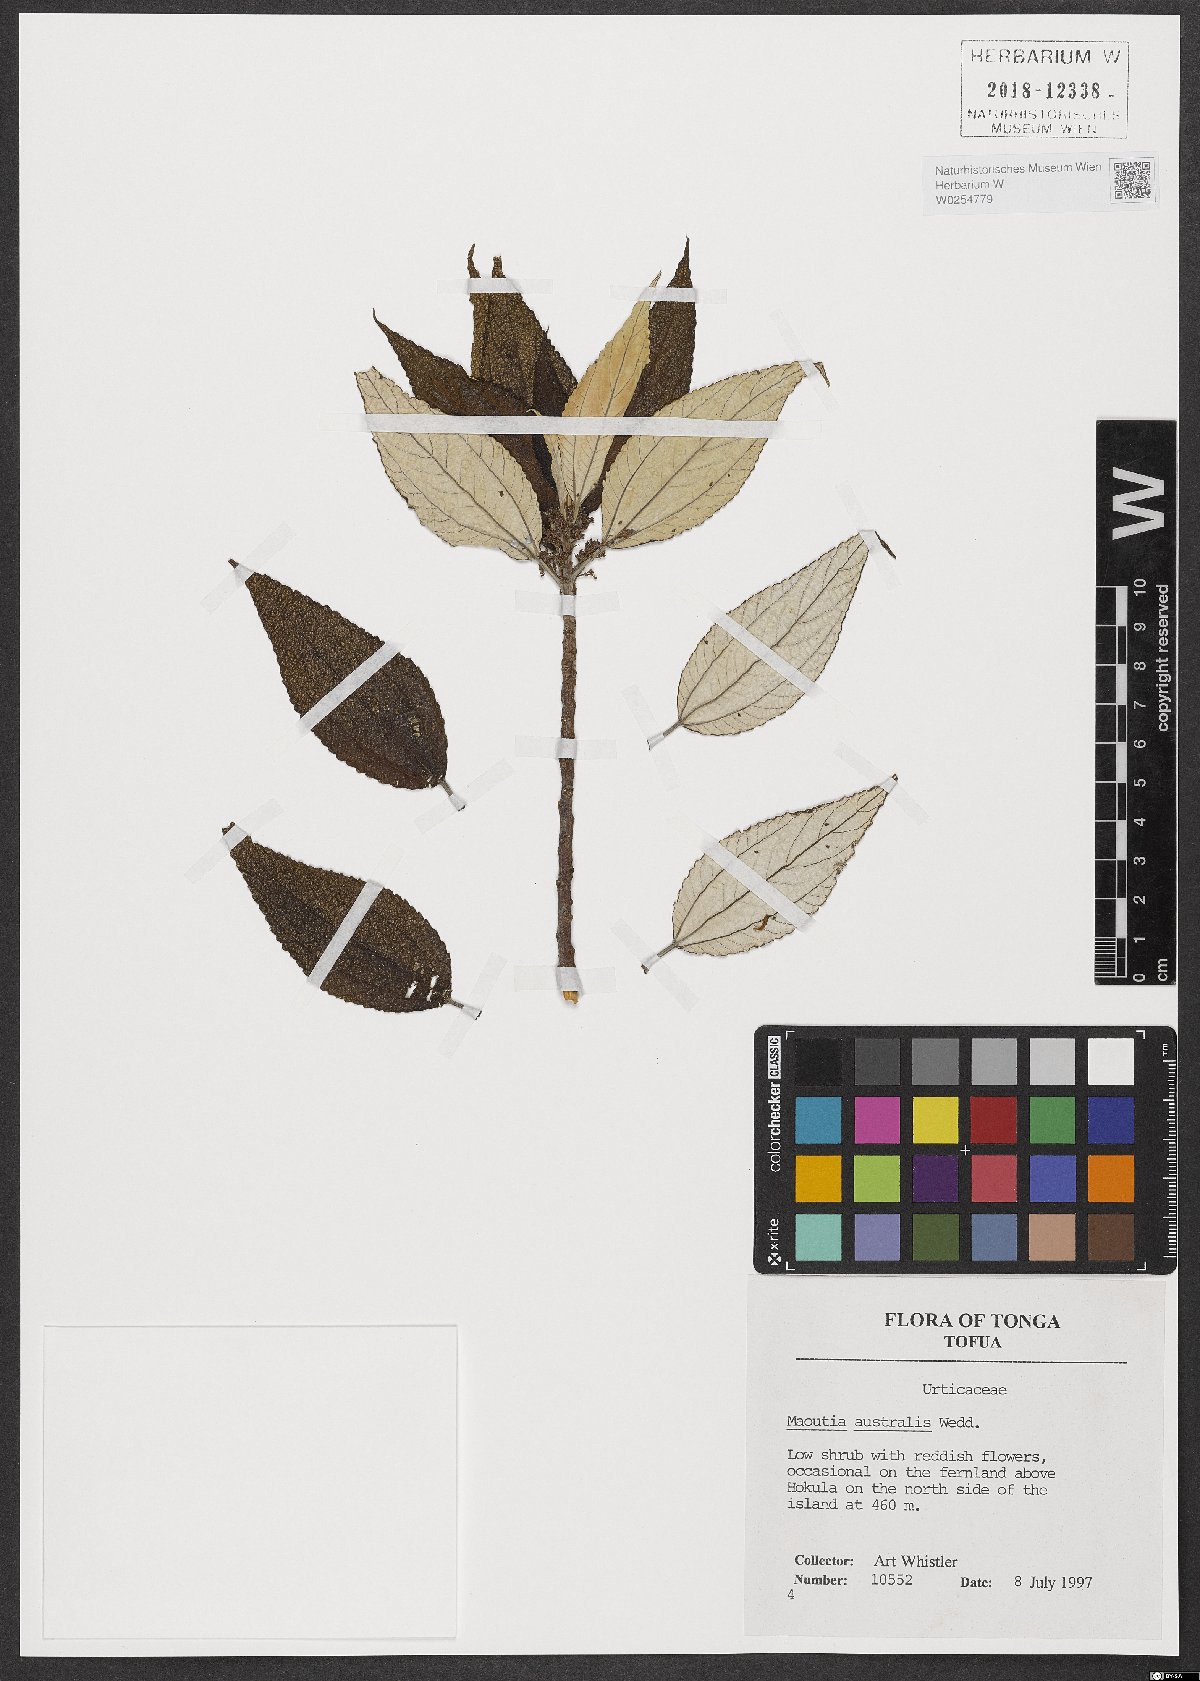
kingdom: Plantae
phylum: Tracheophyta
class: Magnoliopsida
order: Rosales
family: Urticaceae
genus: Maoutia
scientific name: Maoutia australis
